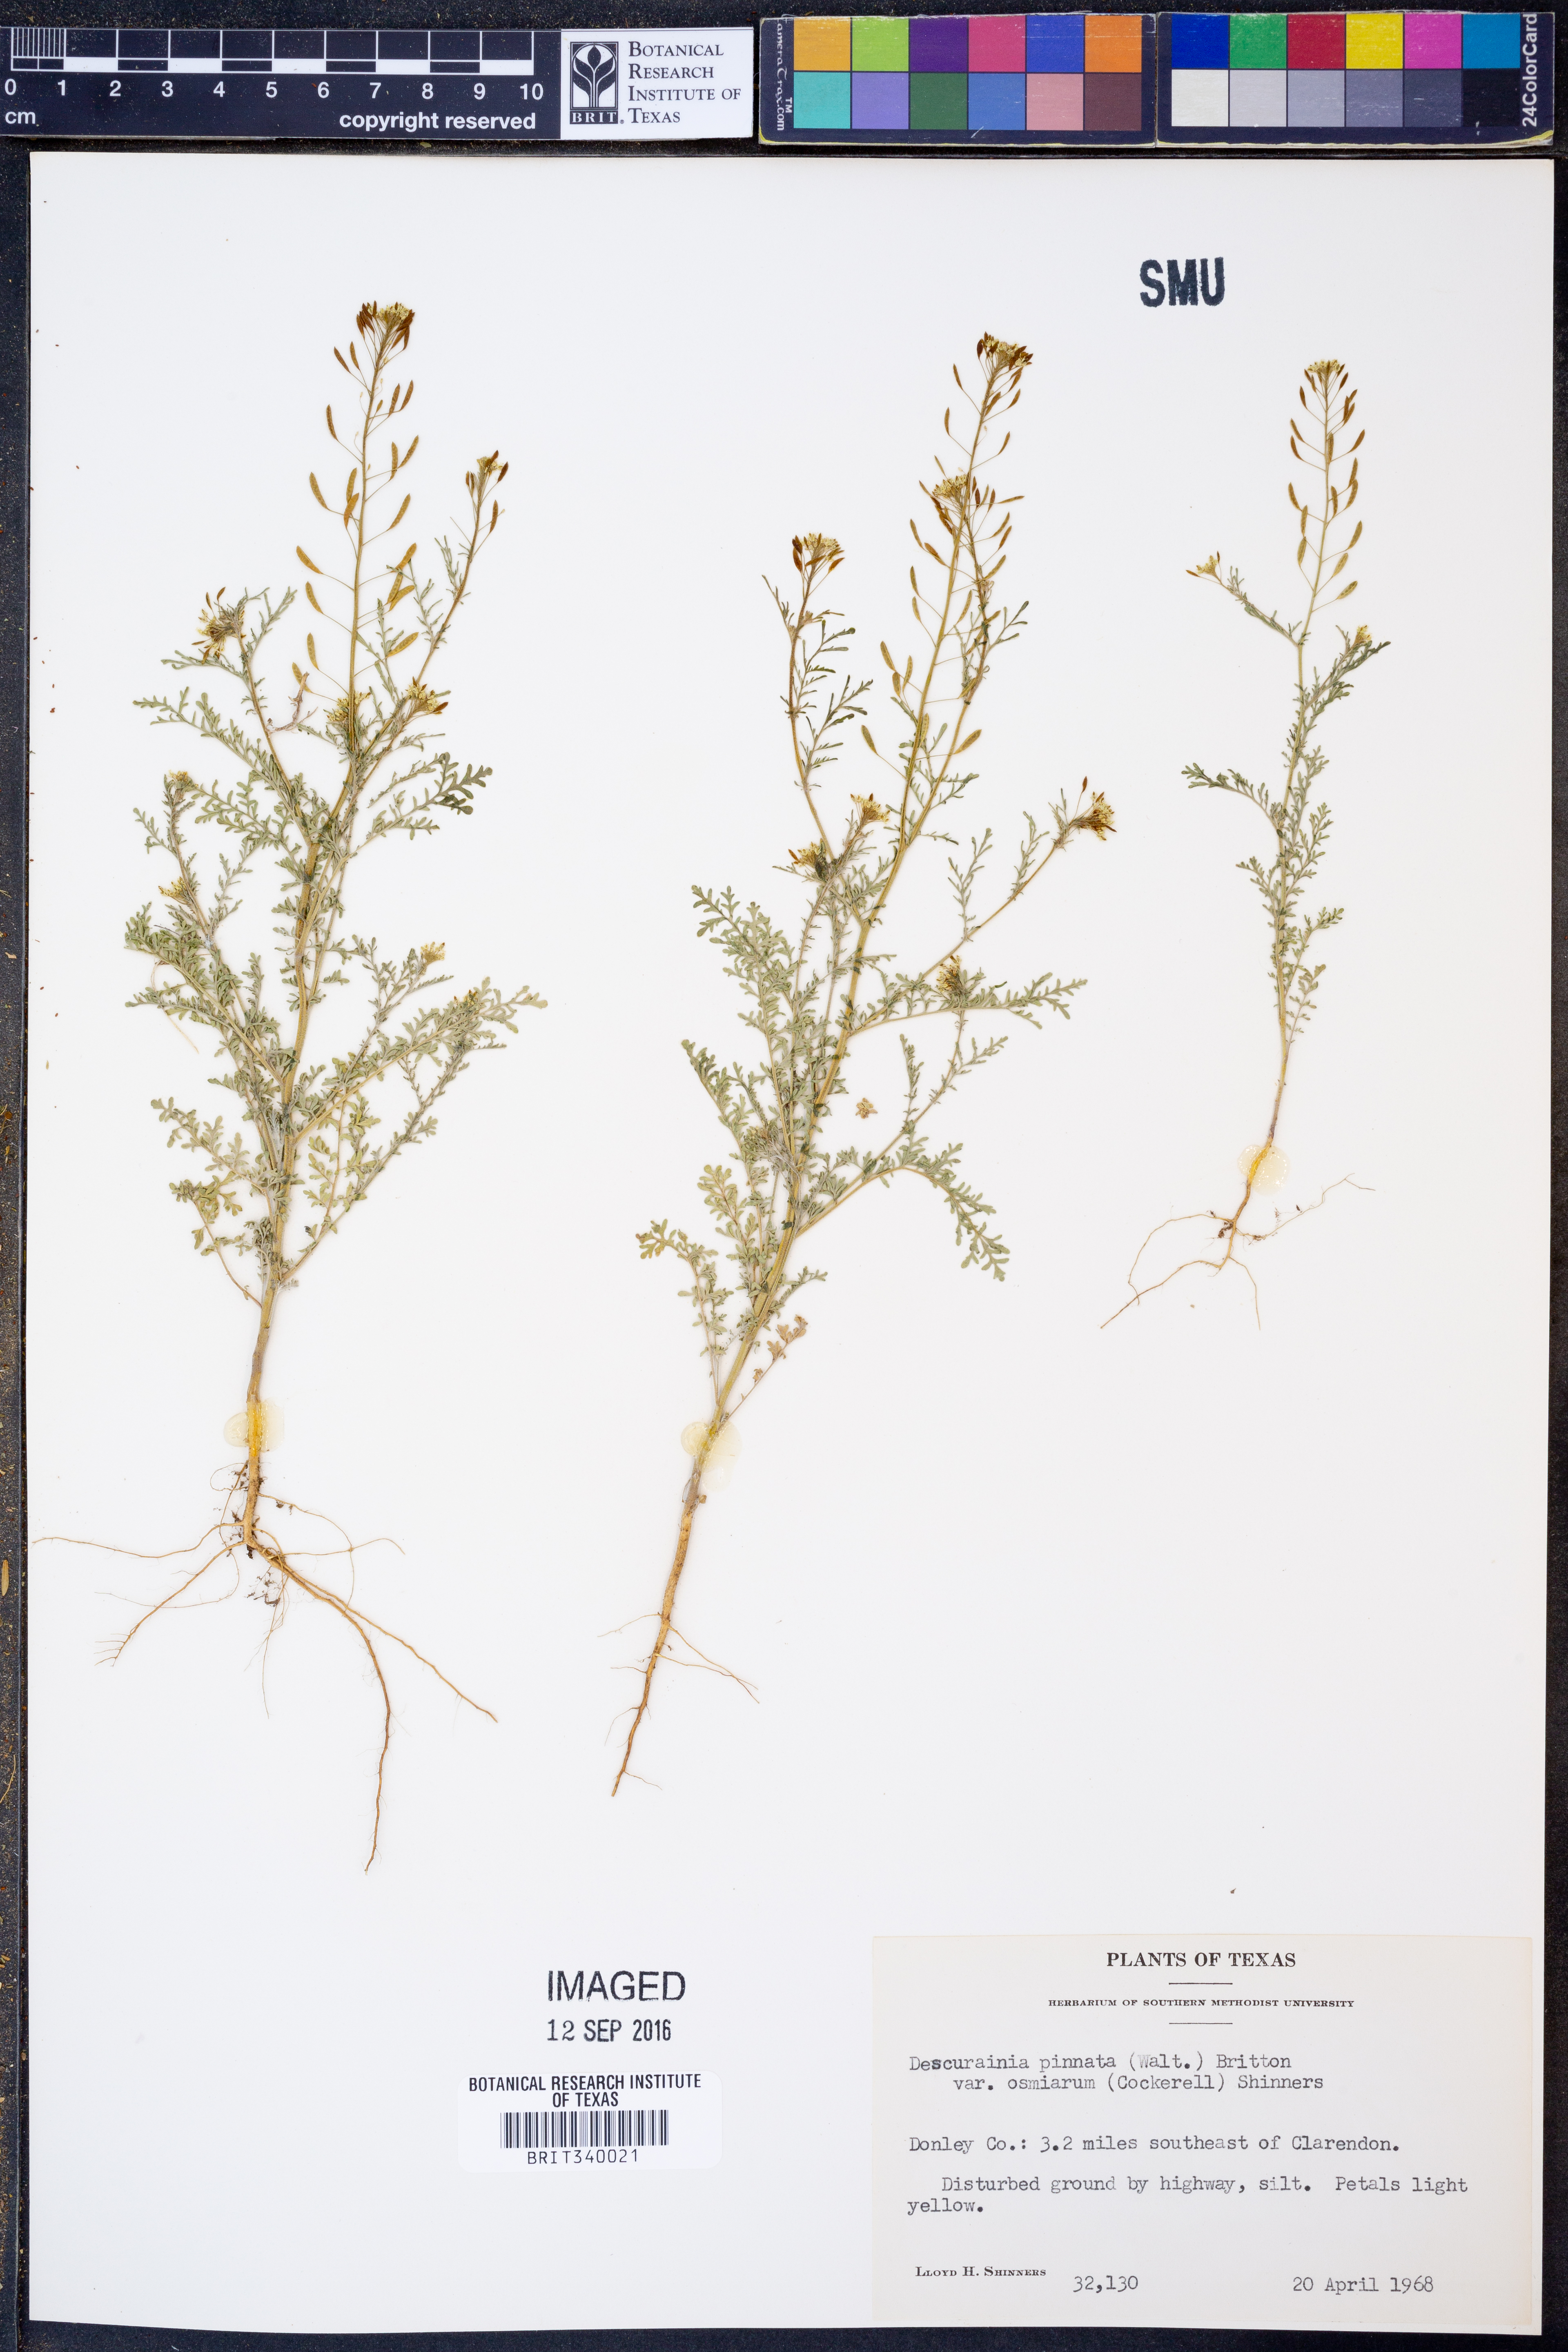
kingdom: Plantae
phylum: Tracheophyta
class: Magnoliopsida
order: Brassicales
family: Brassicaceae
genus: Descurainia
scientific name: Descurainia pinnata
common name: Western tansy mustard
